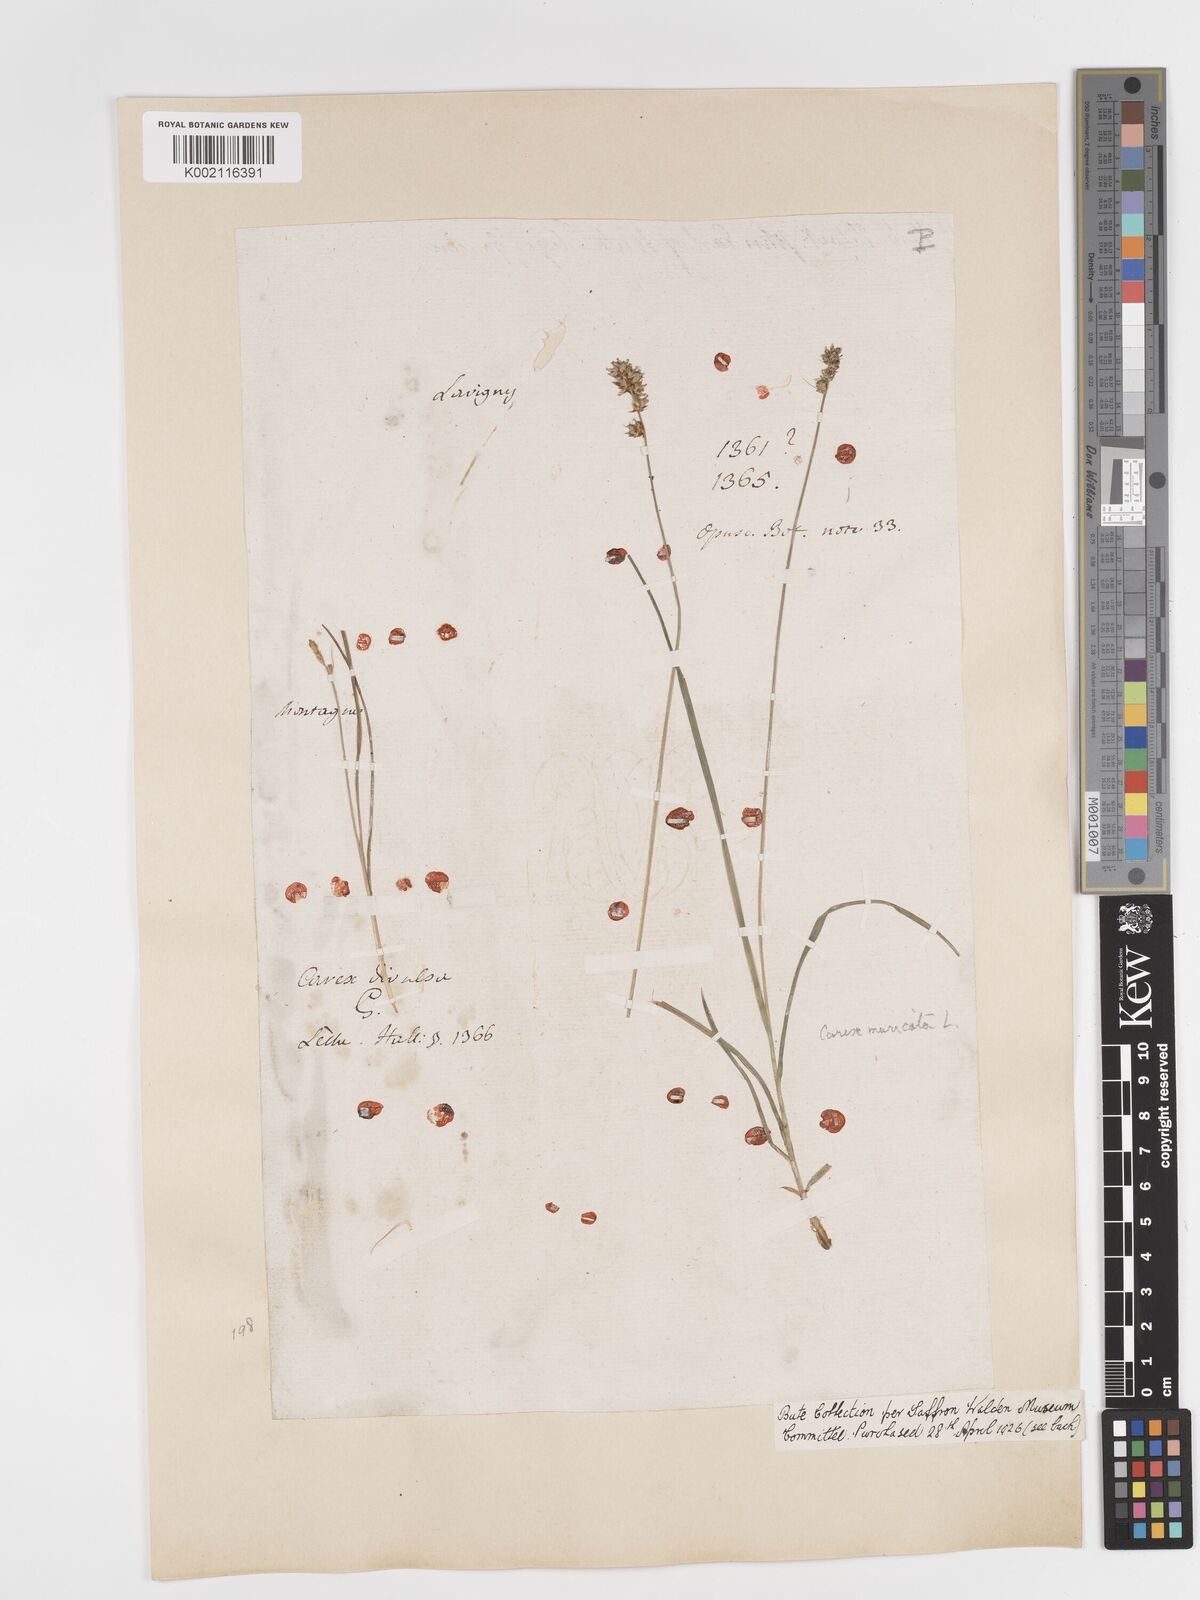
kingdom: Plantae
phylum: Tracheophyta
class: Liliopsida
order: Poales
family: Cyperaceae
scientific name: Cyperaceae
